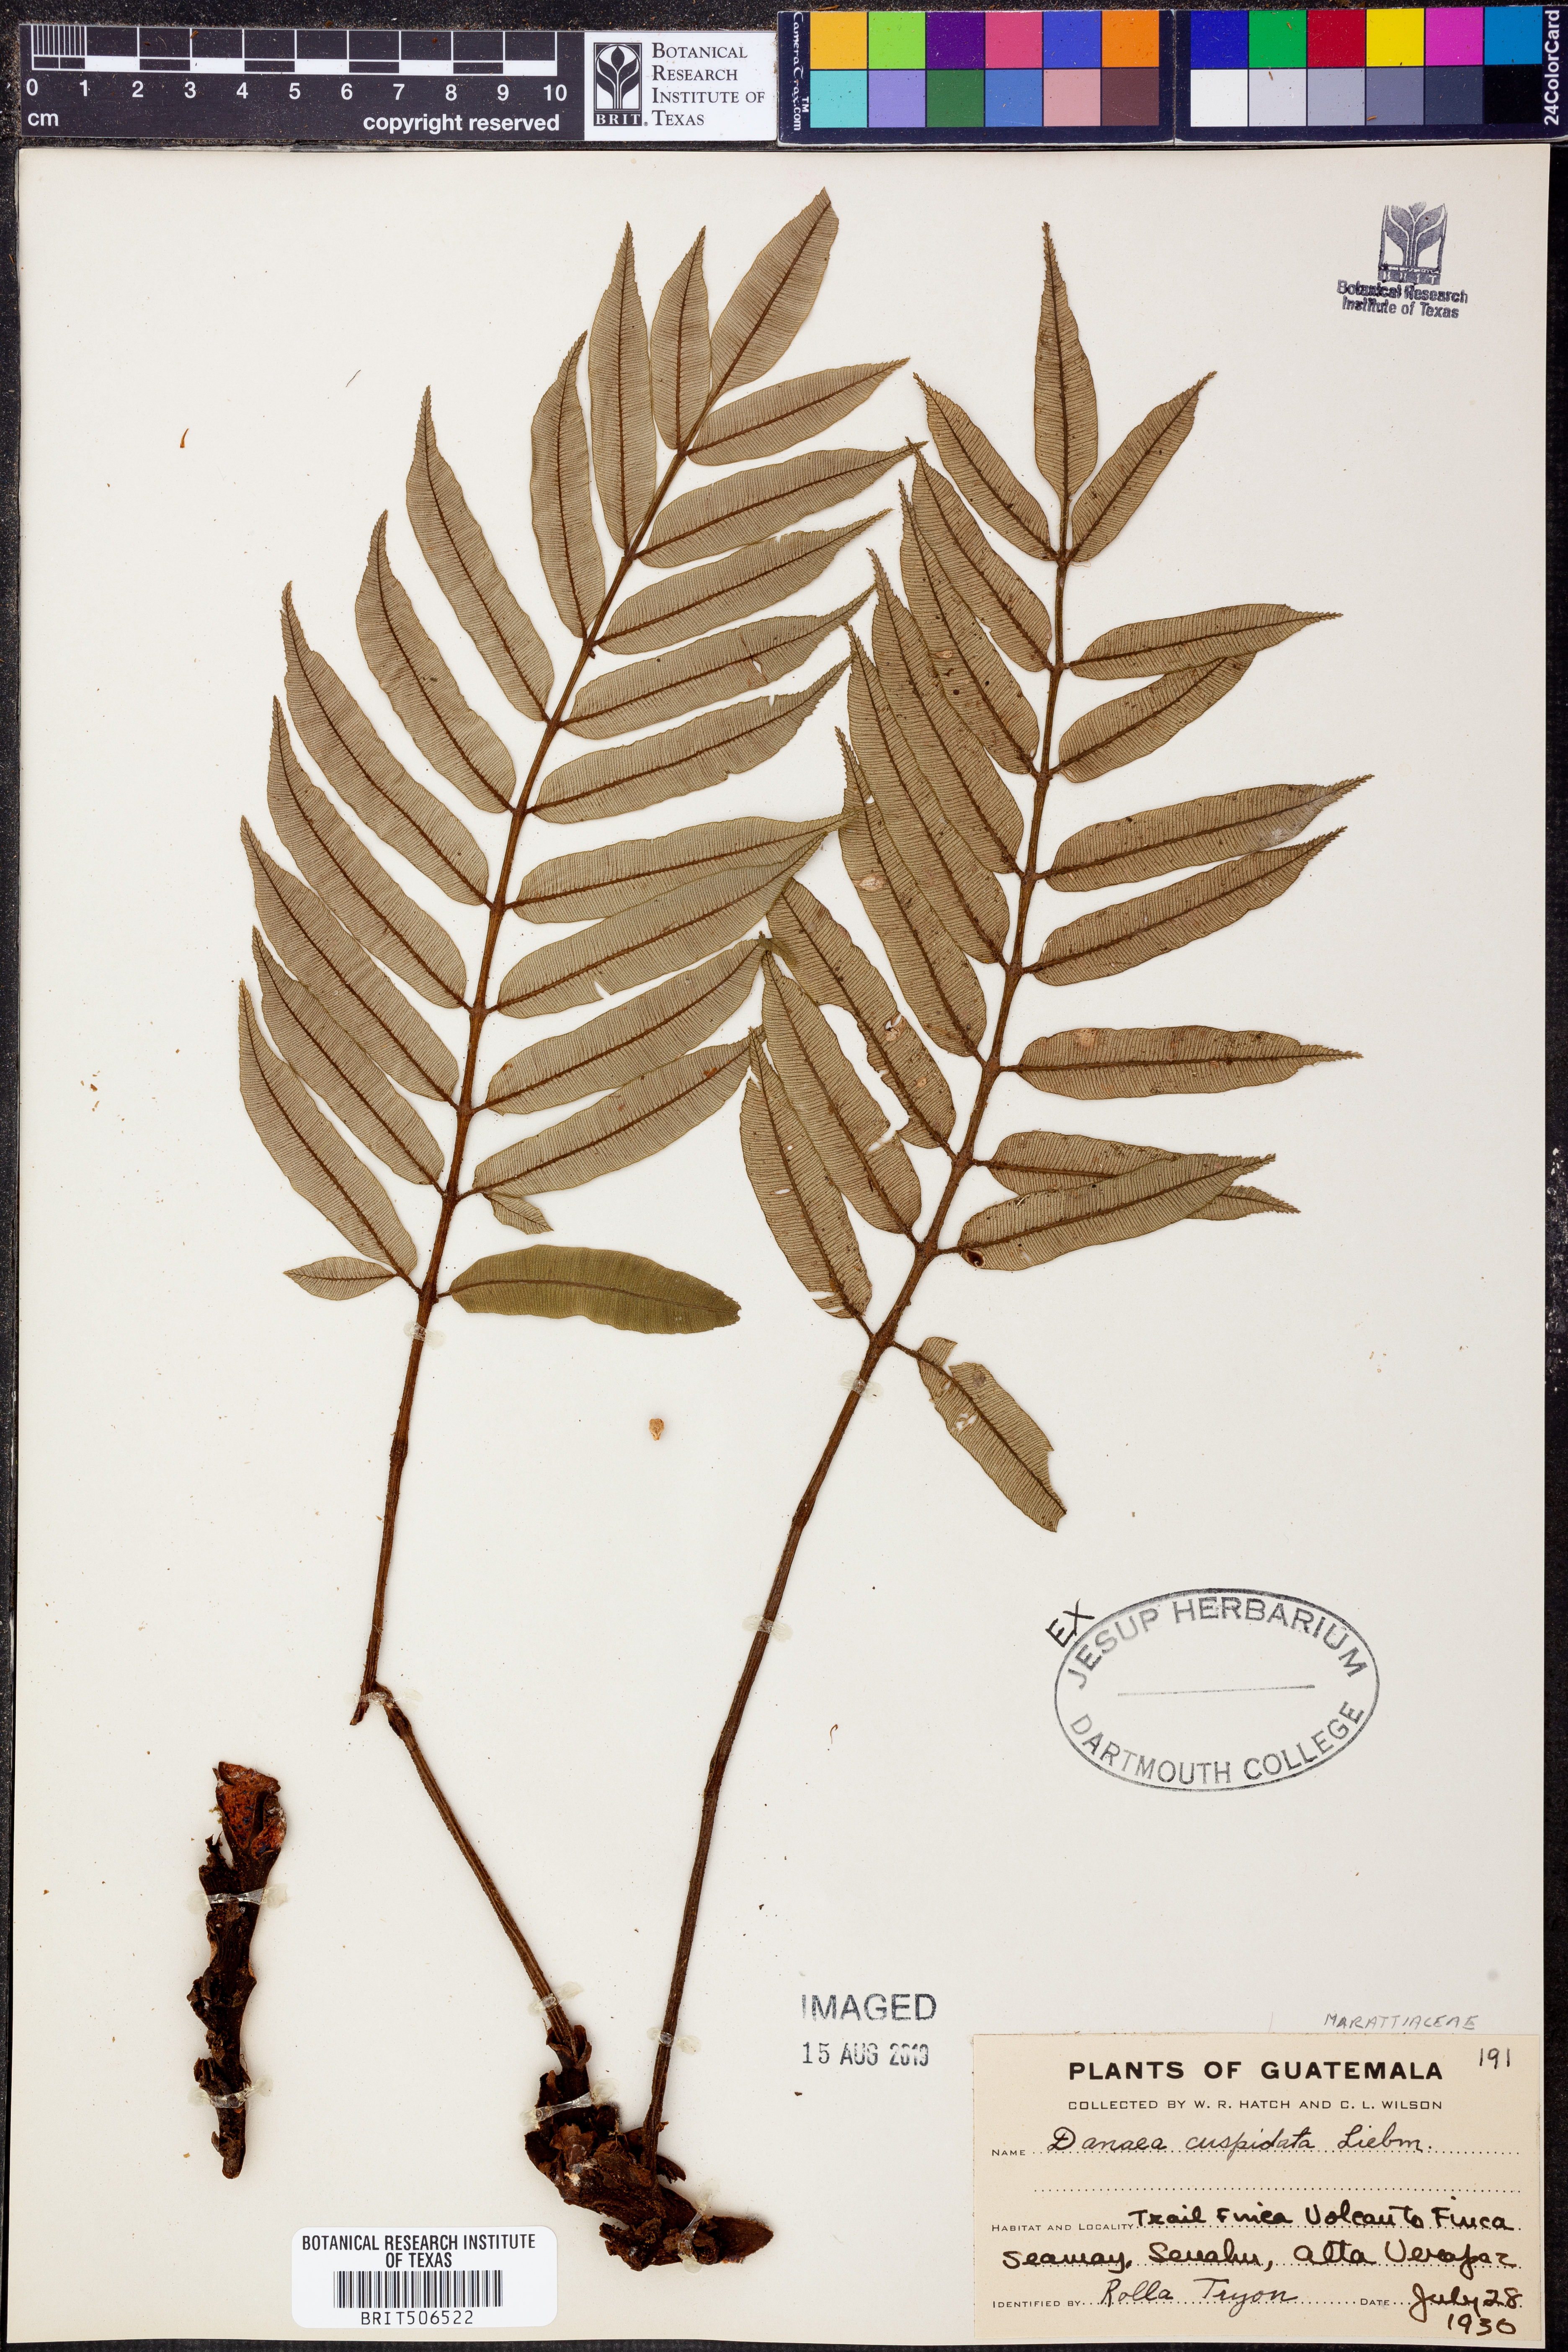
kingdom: Plantae
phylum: Tracheophyta
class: Polypodiopsida
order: Marattiales
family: Marattiaceae
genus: Danaea
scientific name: Danaea moritziana
